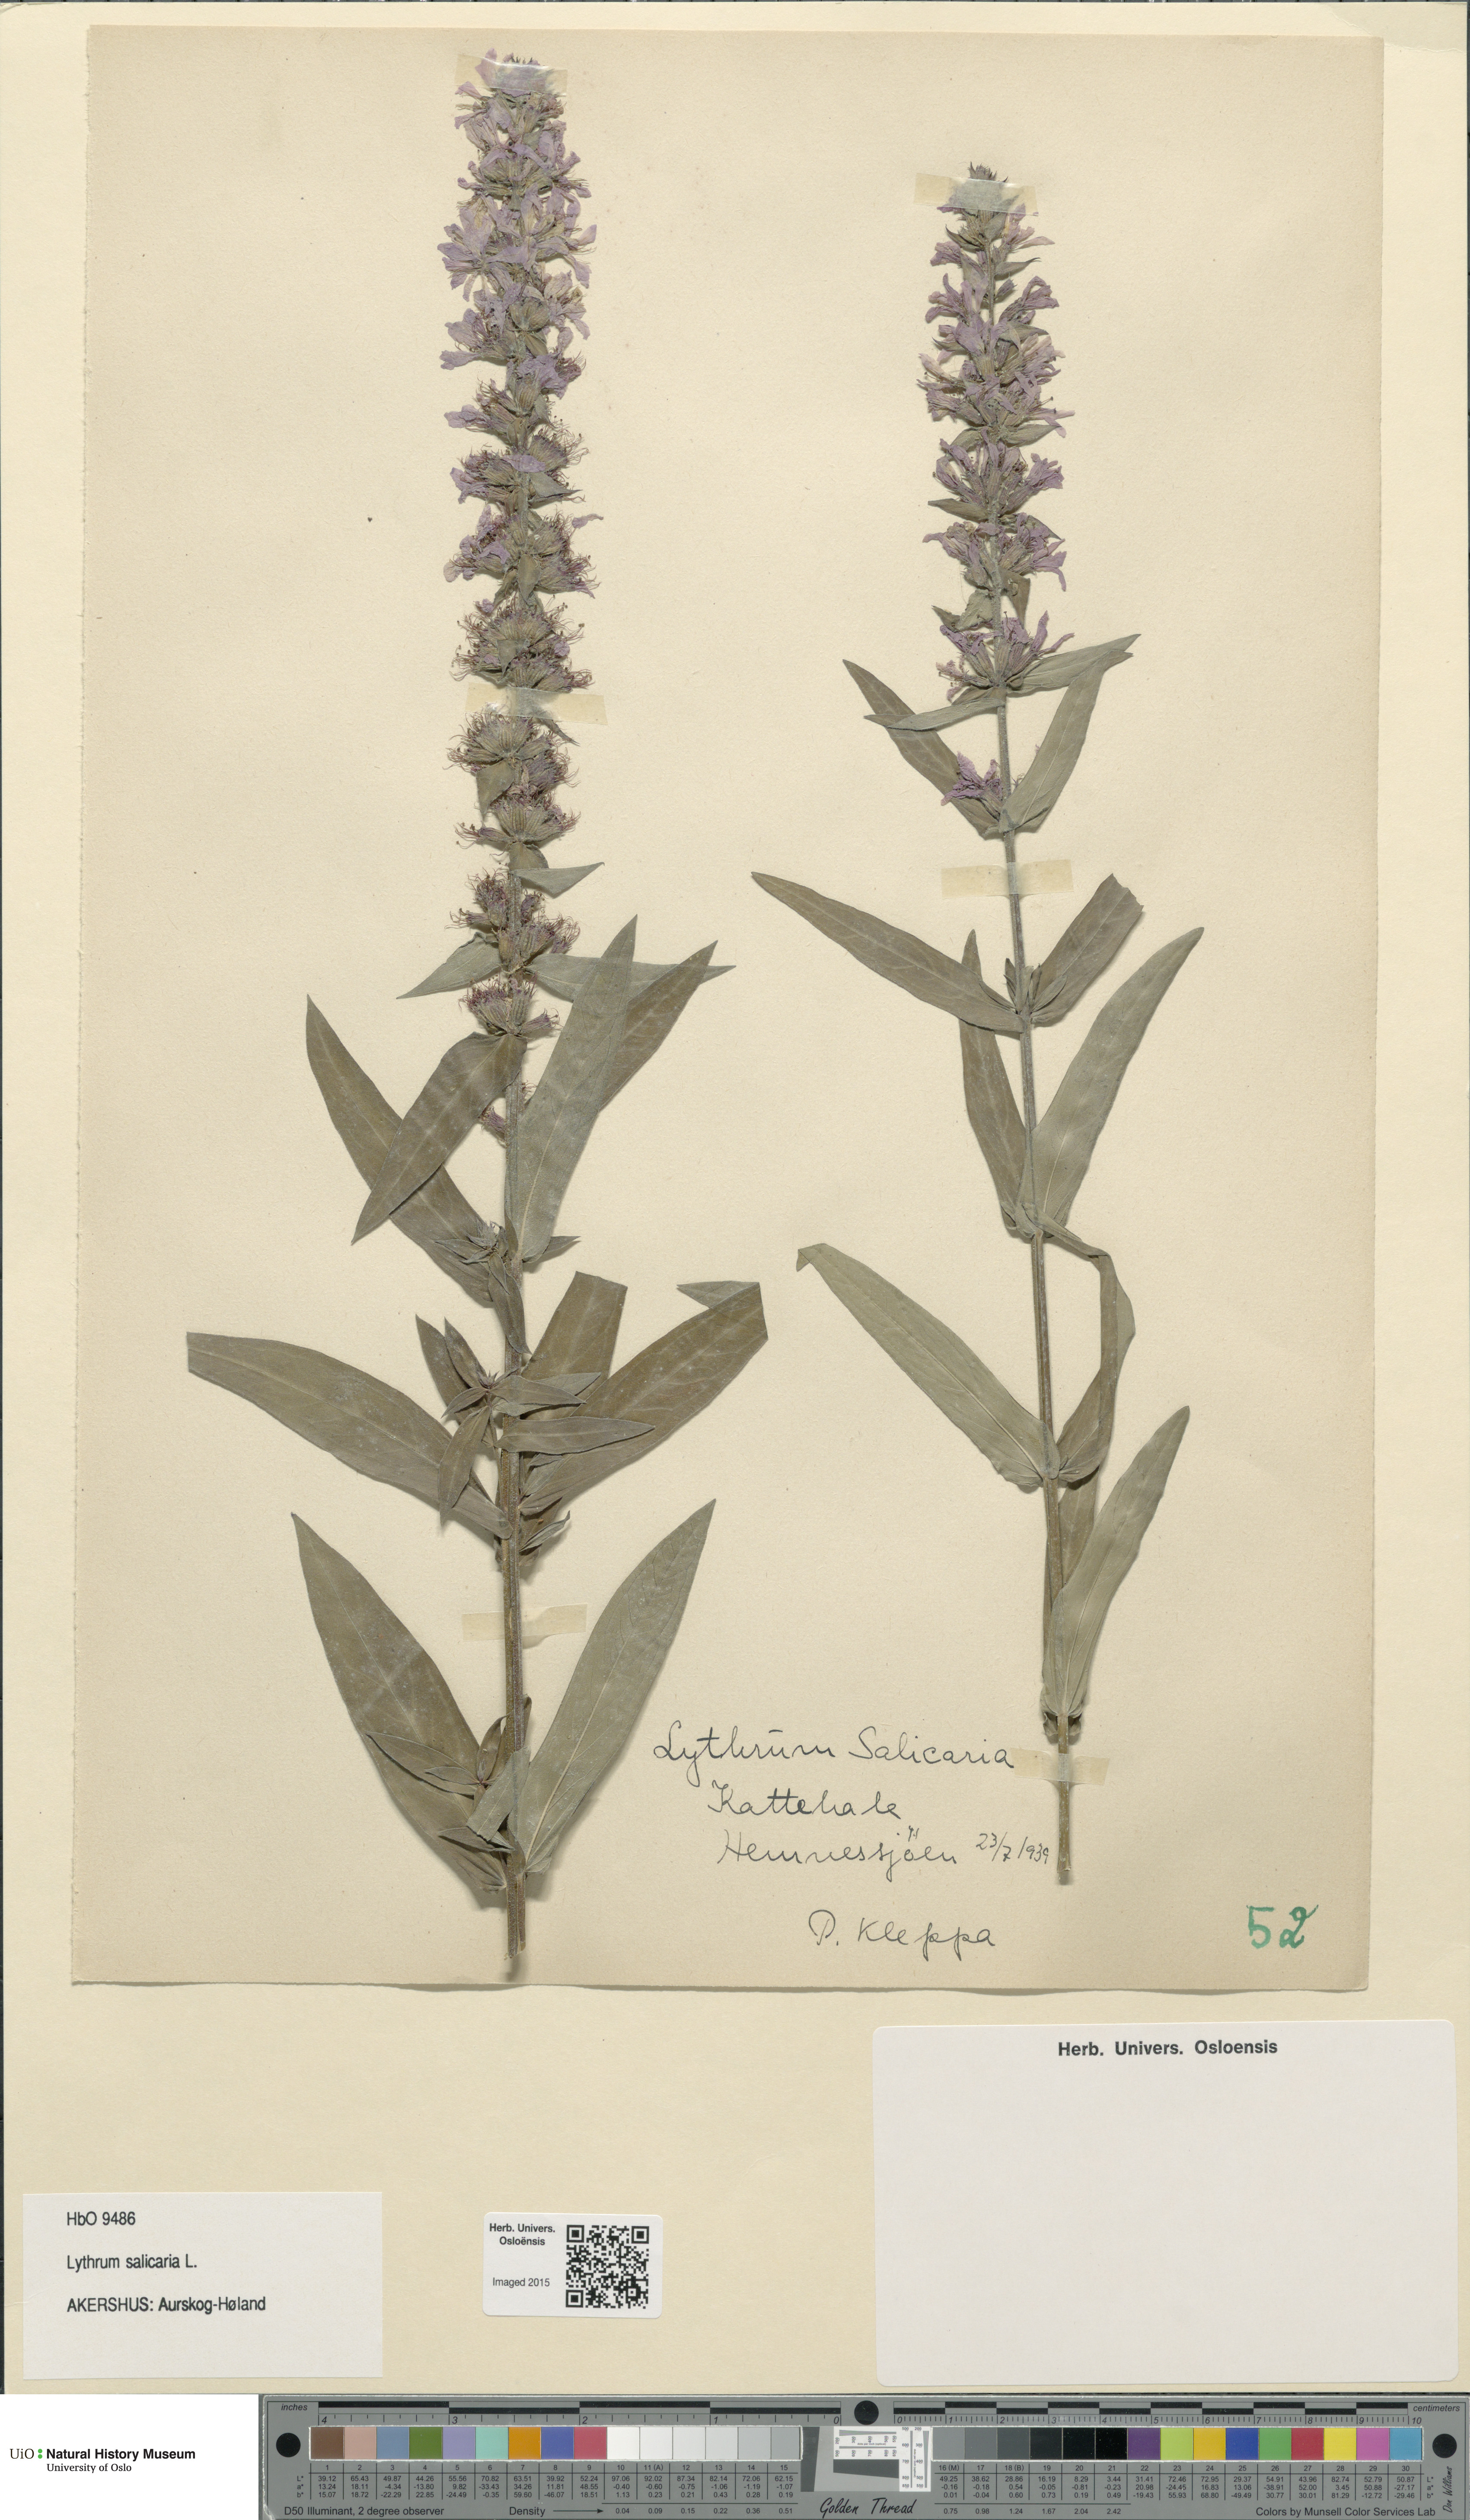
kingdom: Plantae
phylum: Tracheophyta
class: Magnoliopsida
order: Myrtales
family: Lythraceae
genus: Lythrum
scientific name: Lythrum salicaria
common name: Purple loosestrife
